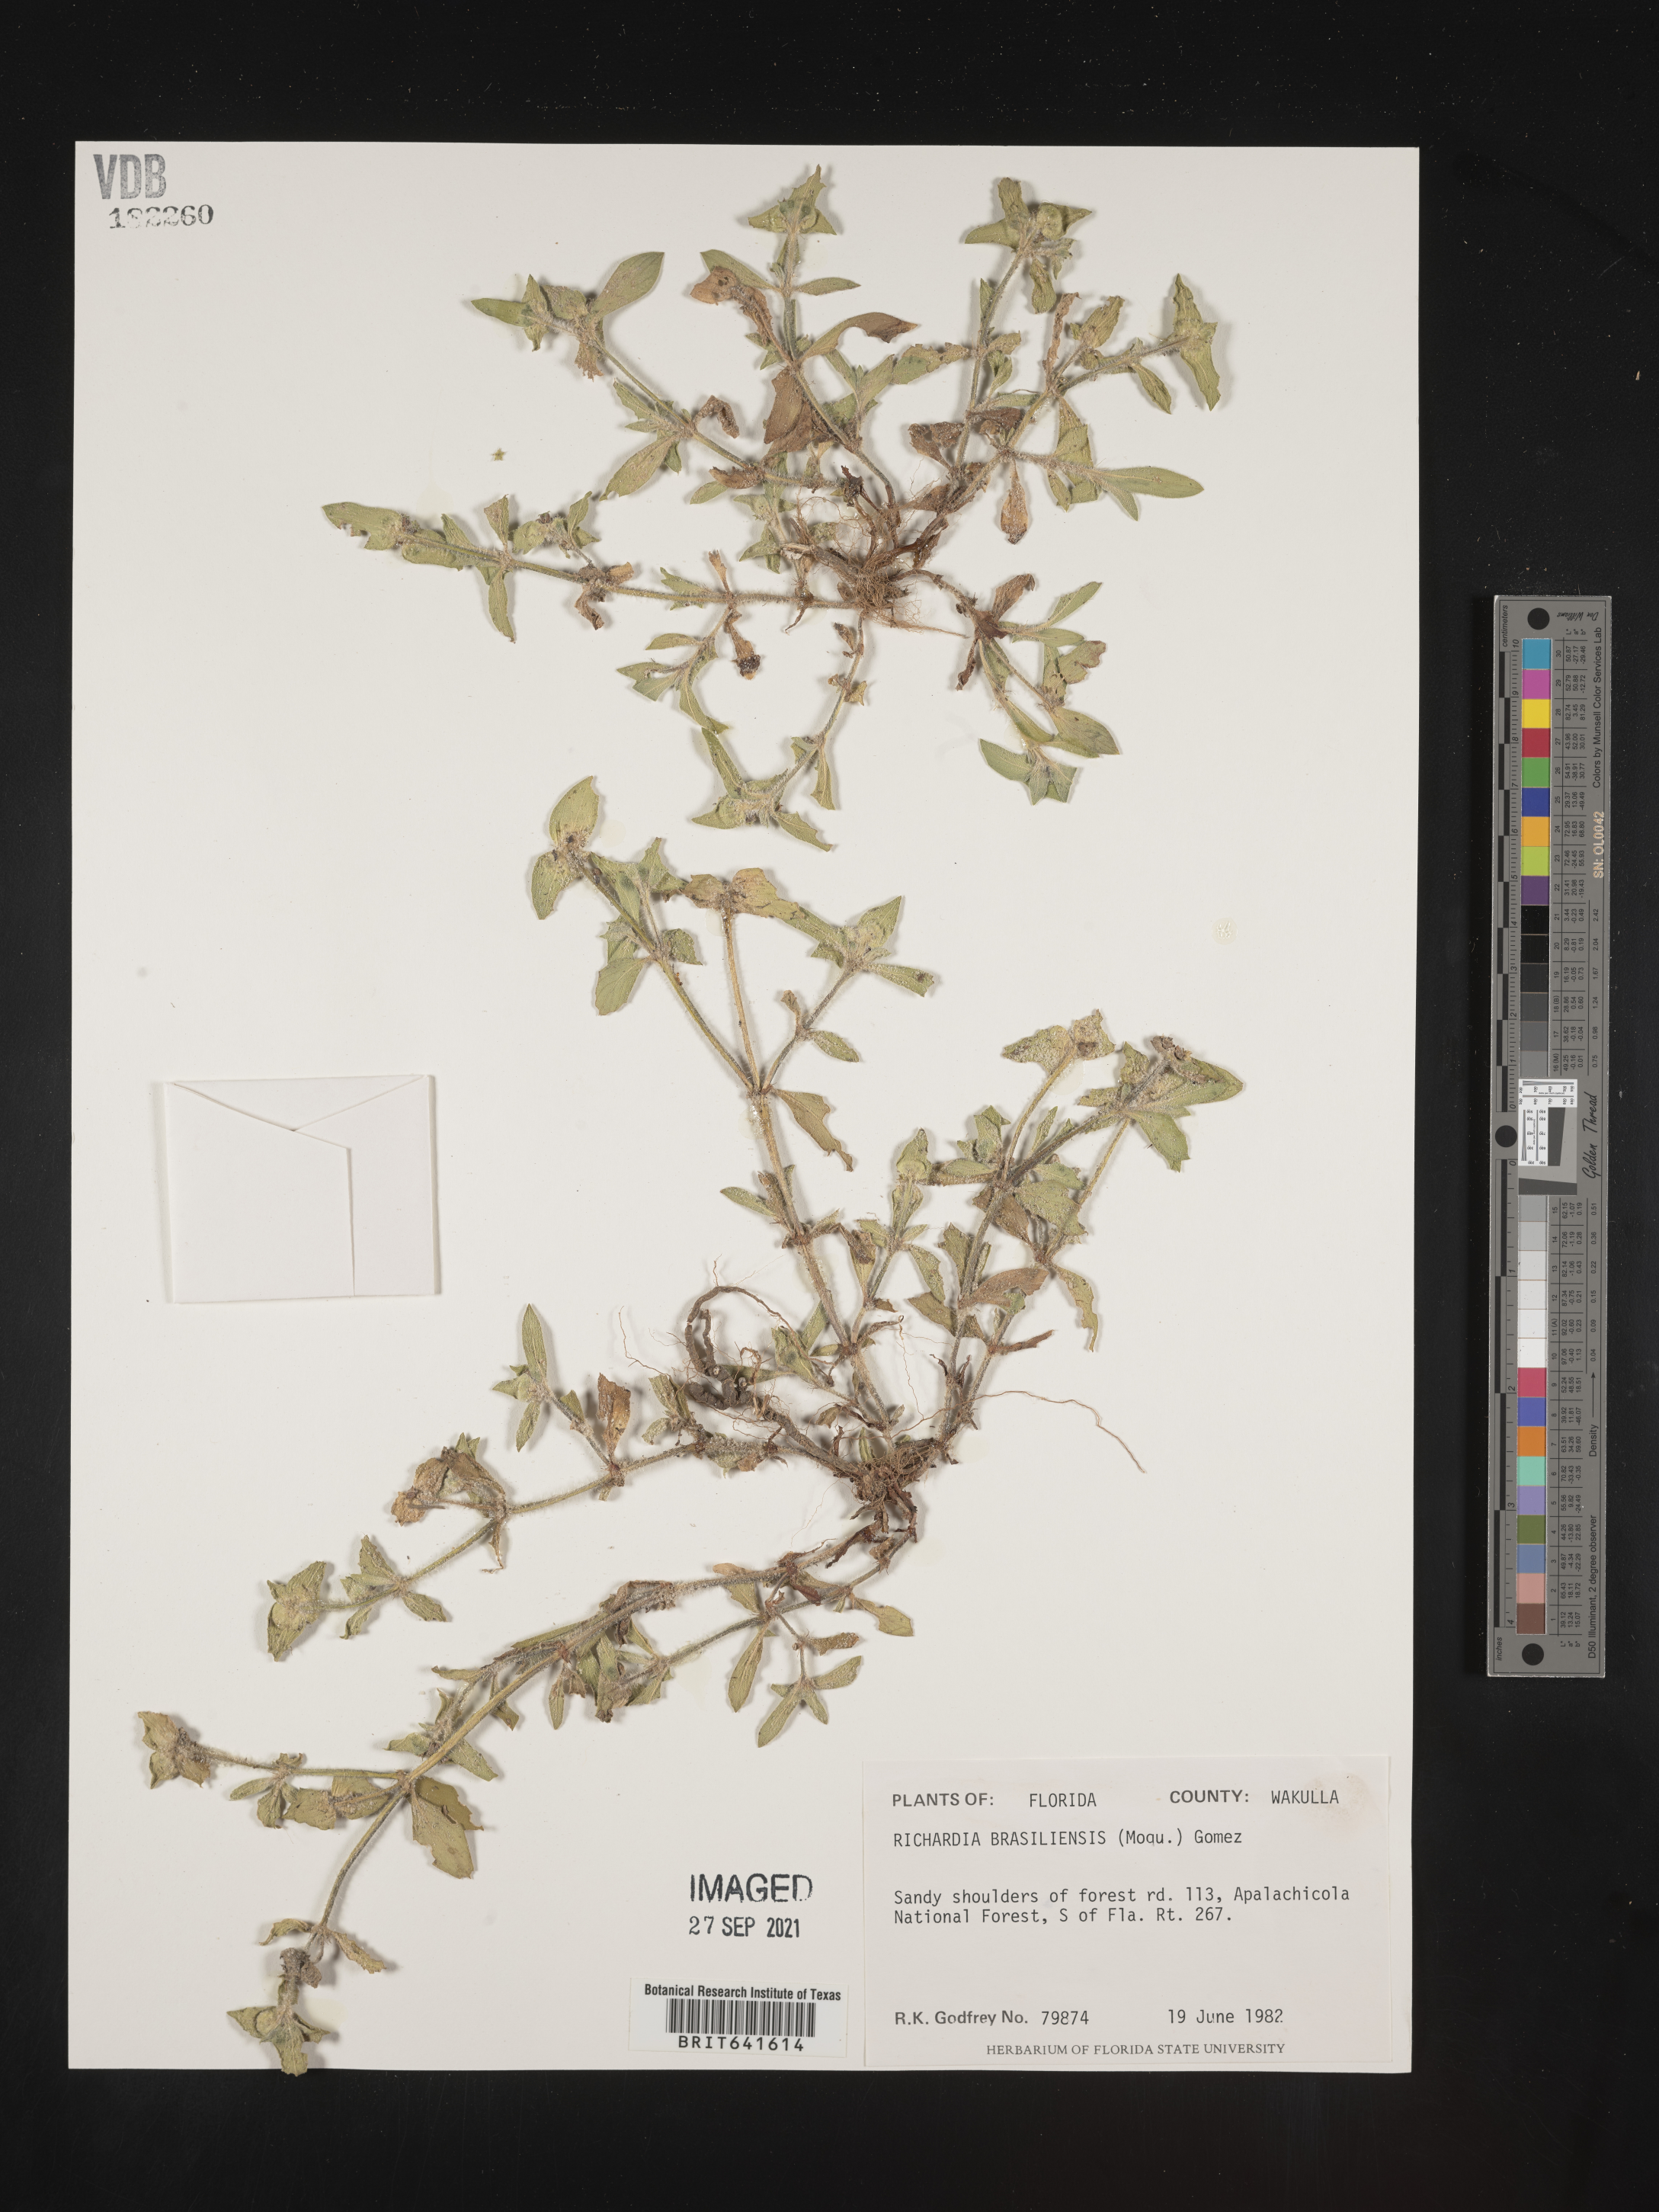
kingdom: Plantae
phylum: Tracheophyta
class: Magnoliopsida
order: Gentianales
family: Rubiaceae
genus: Richardia
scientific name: Richardia brasiliensis
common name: Tropical mexican clover
